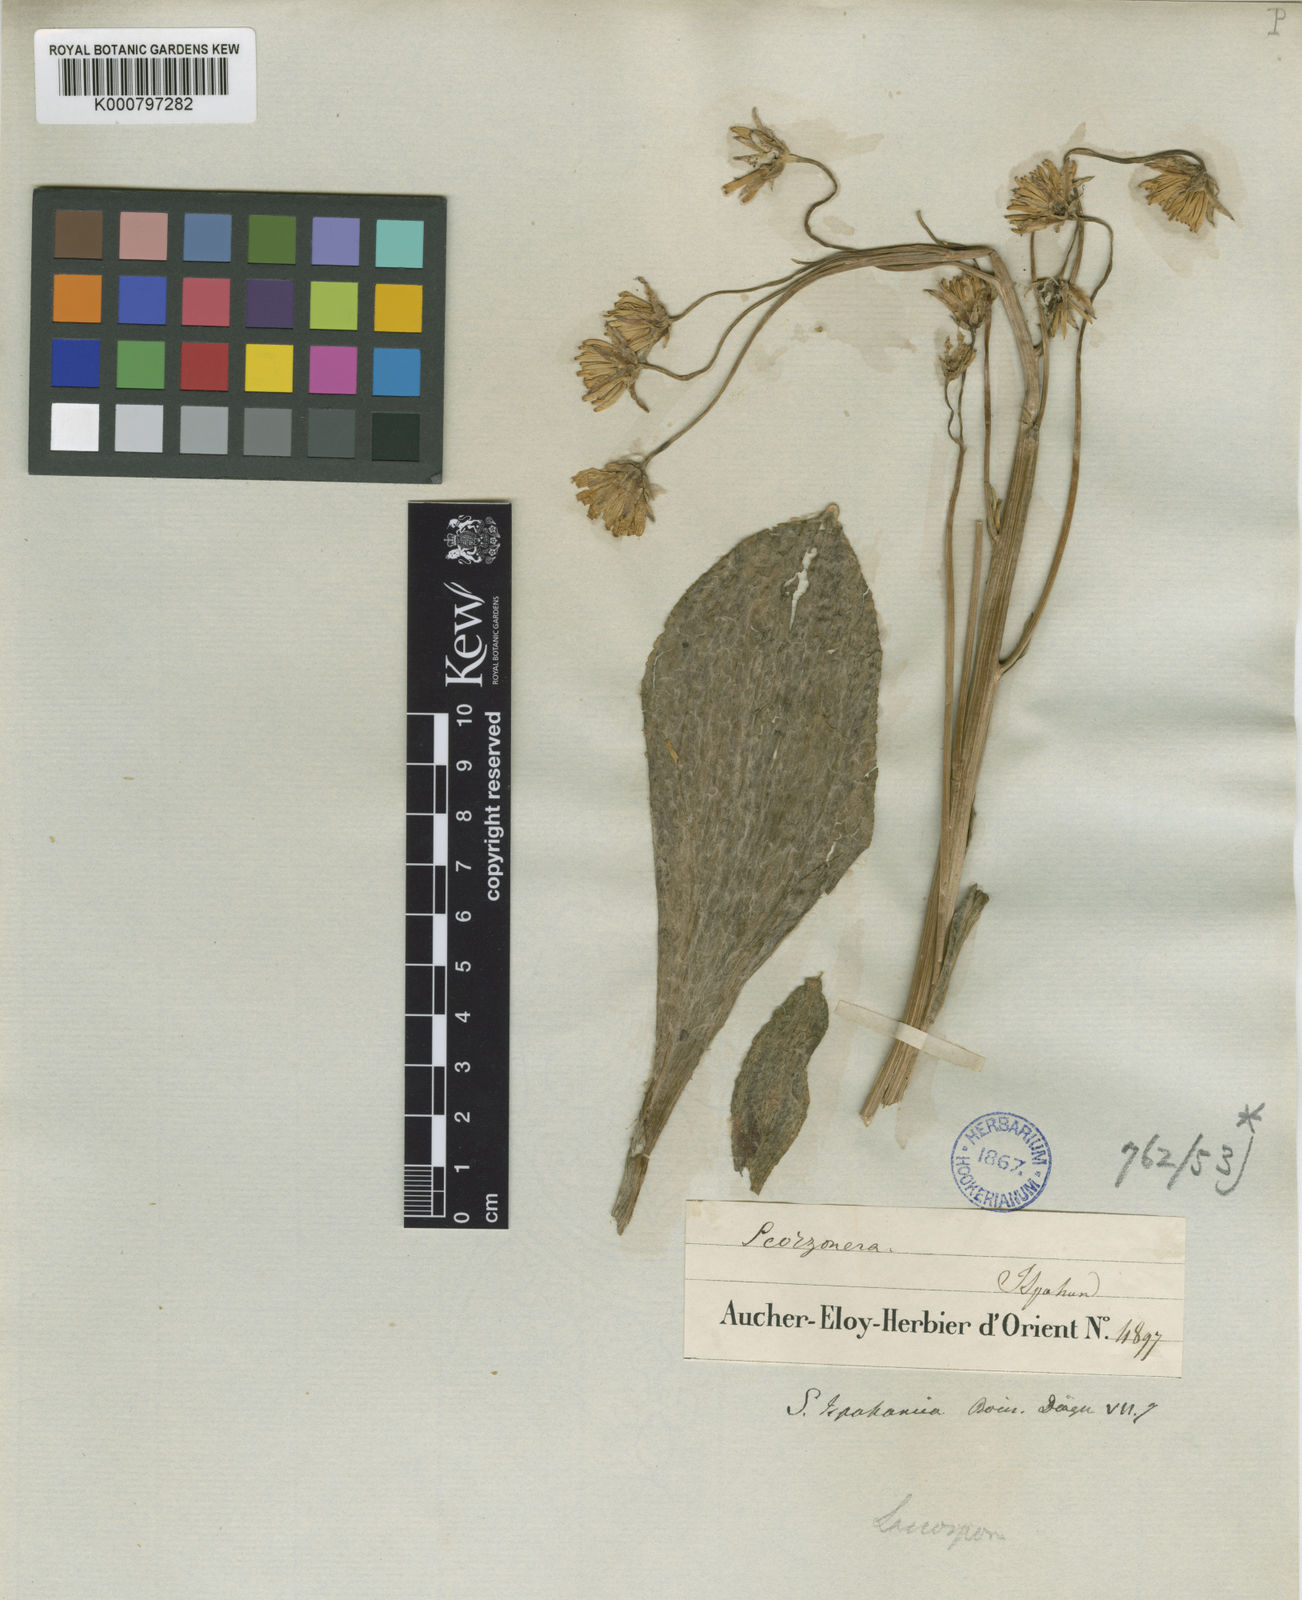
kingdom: Plantae
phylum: Tracheophyta
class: Magnoliopsida
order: Asterales
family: Asteraceae
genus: Scorzonera
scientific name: Scorzonera ispahanica
